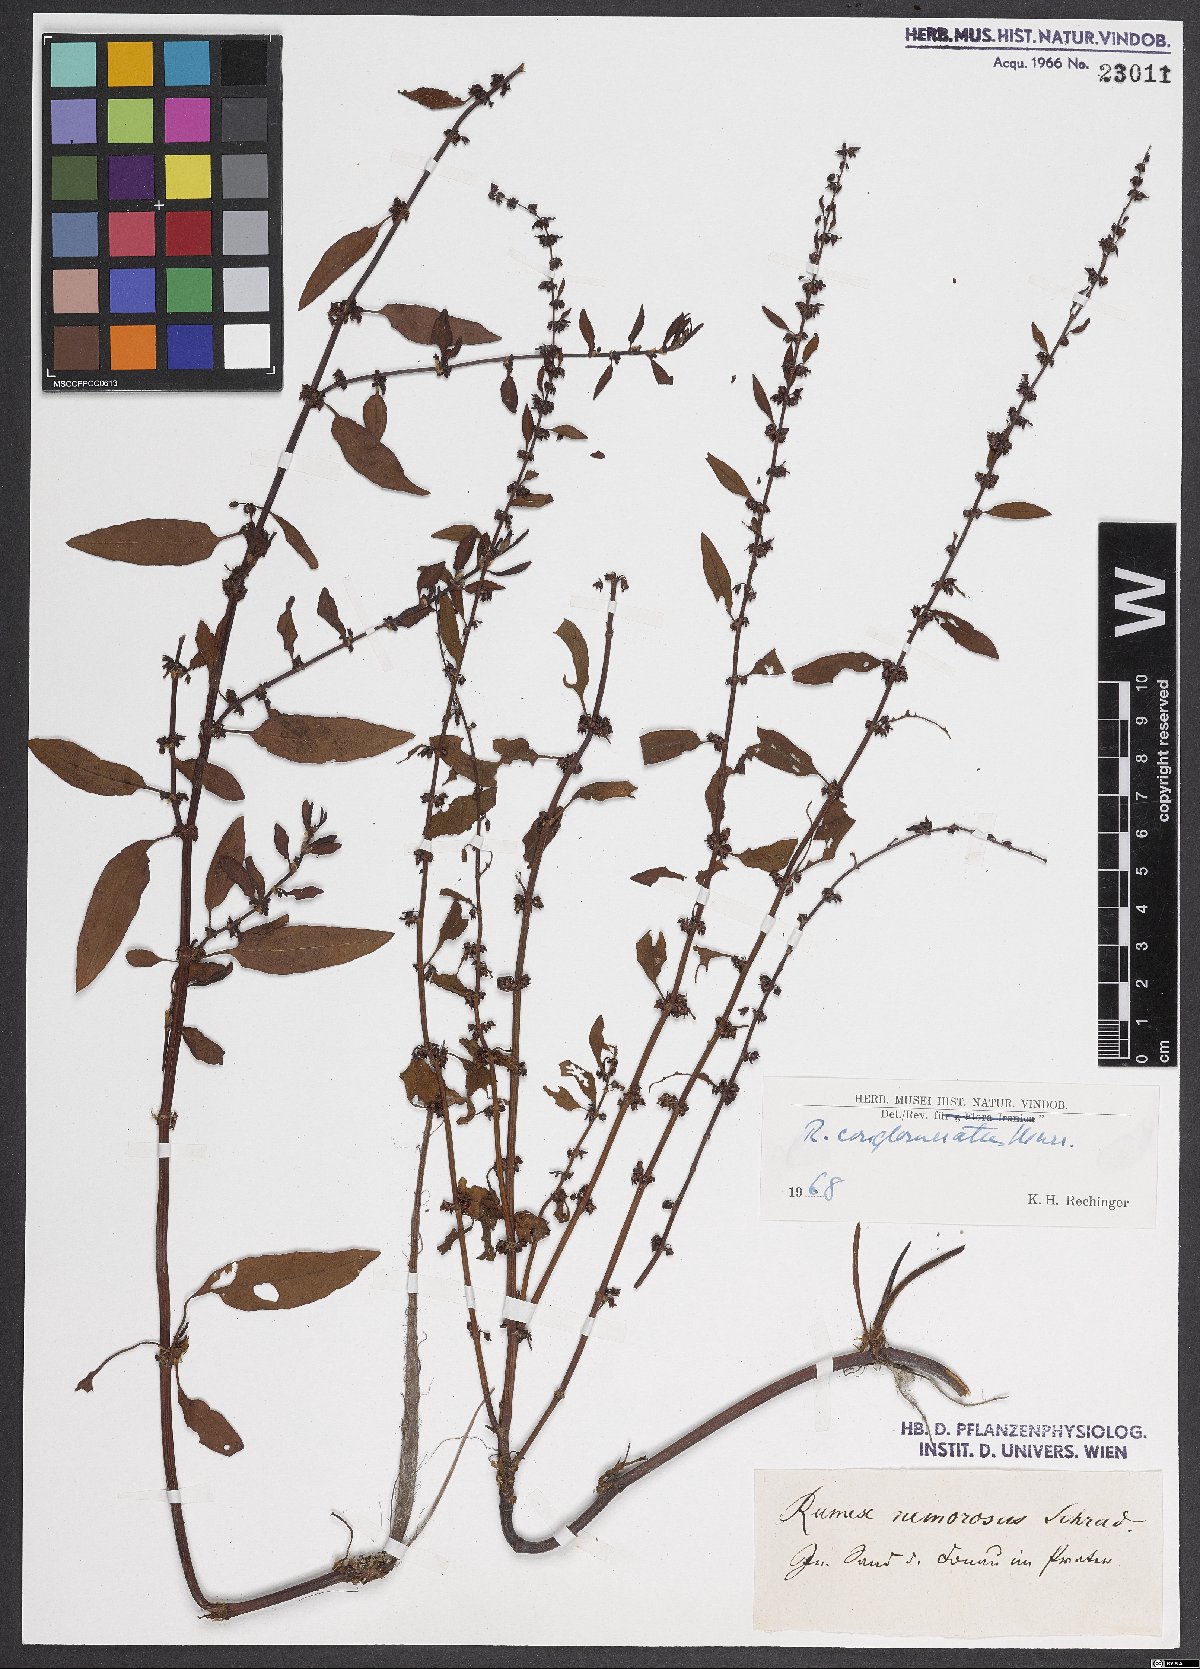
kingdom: Plantae
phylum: Tracheophyta
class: Magnoliopsida
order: Caryophyllales
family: Polygonaceae
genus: Rumex
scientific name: Rumex conglomeratus
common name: Clustered dock
